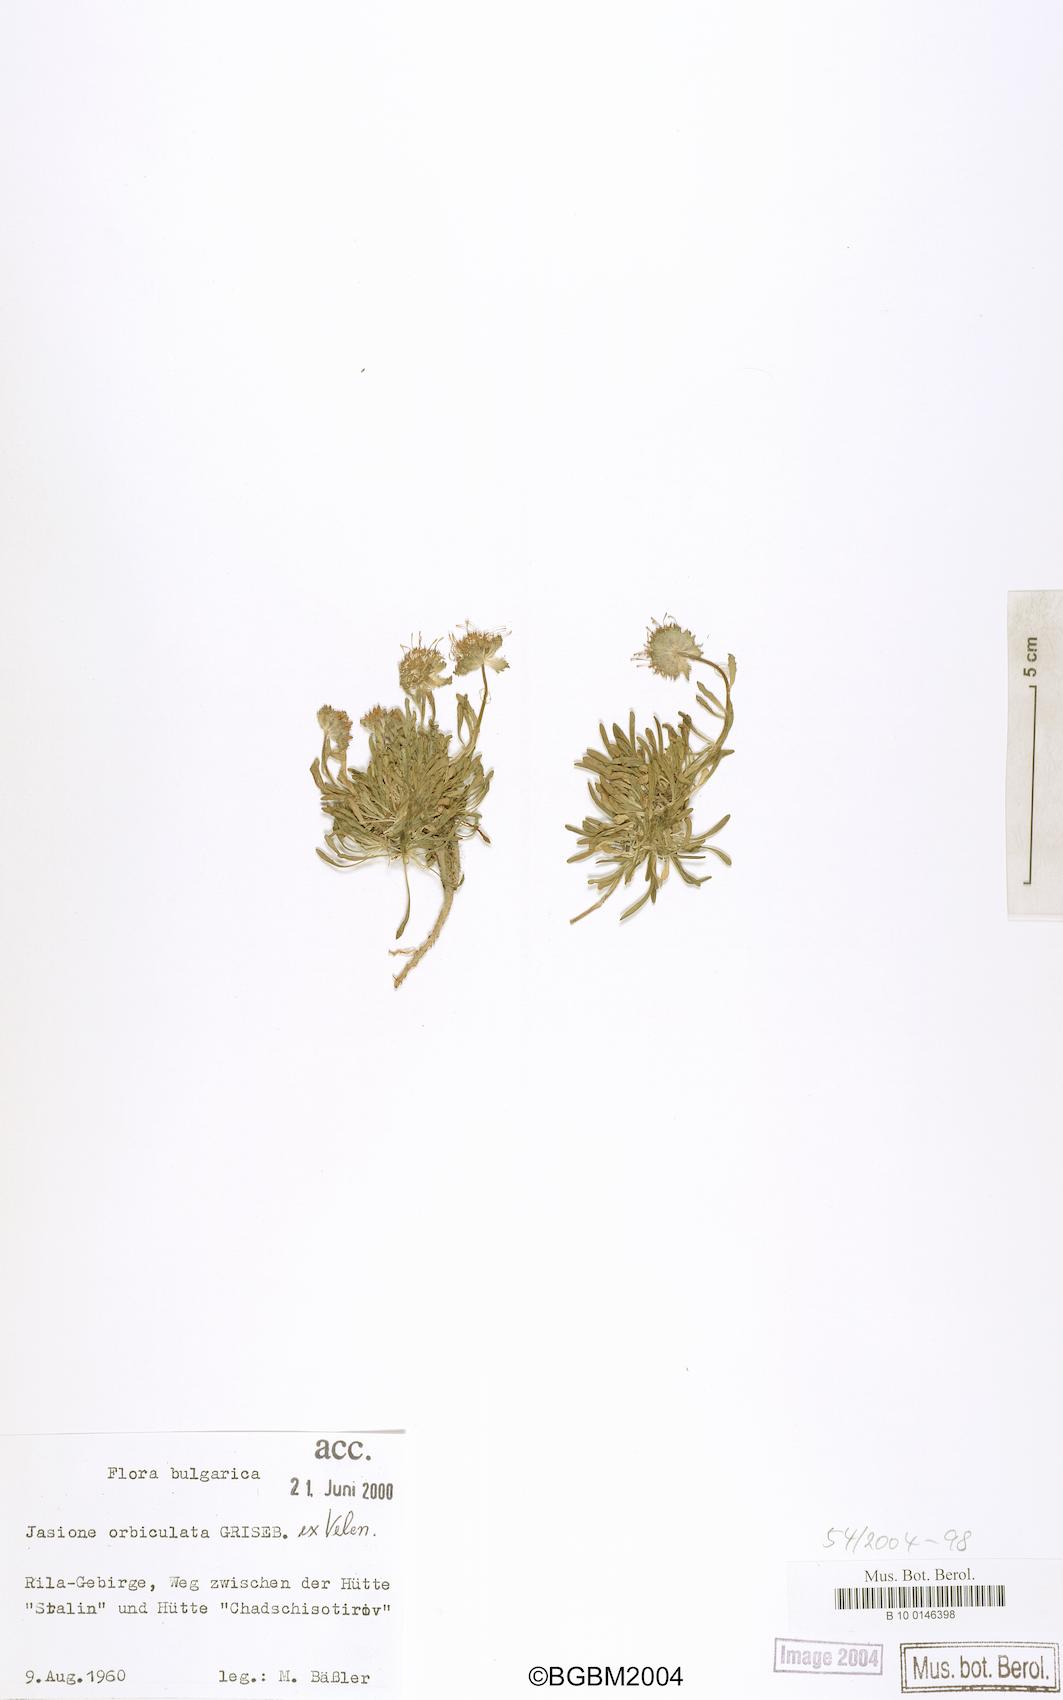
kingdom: Plantae
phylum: Tracheophyta
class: Magnoliopsida
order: Asterales
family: Campanulaceae
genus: Jasione
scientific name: Jasione orbiculata
